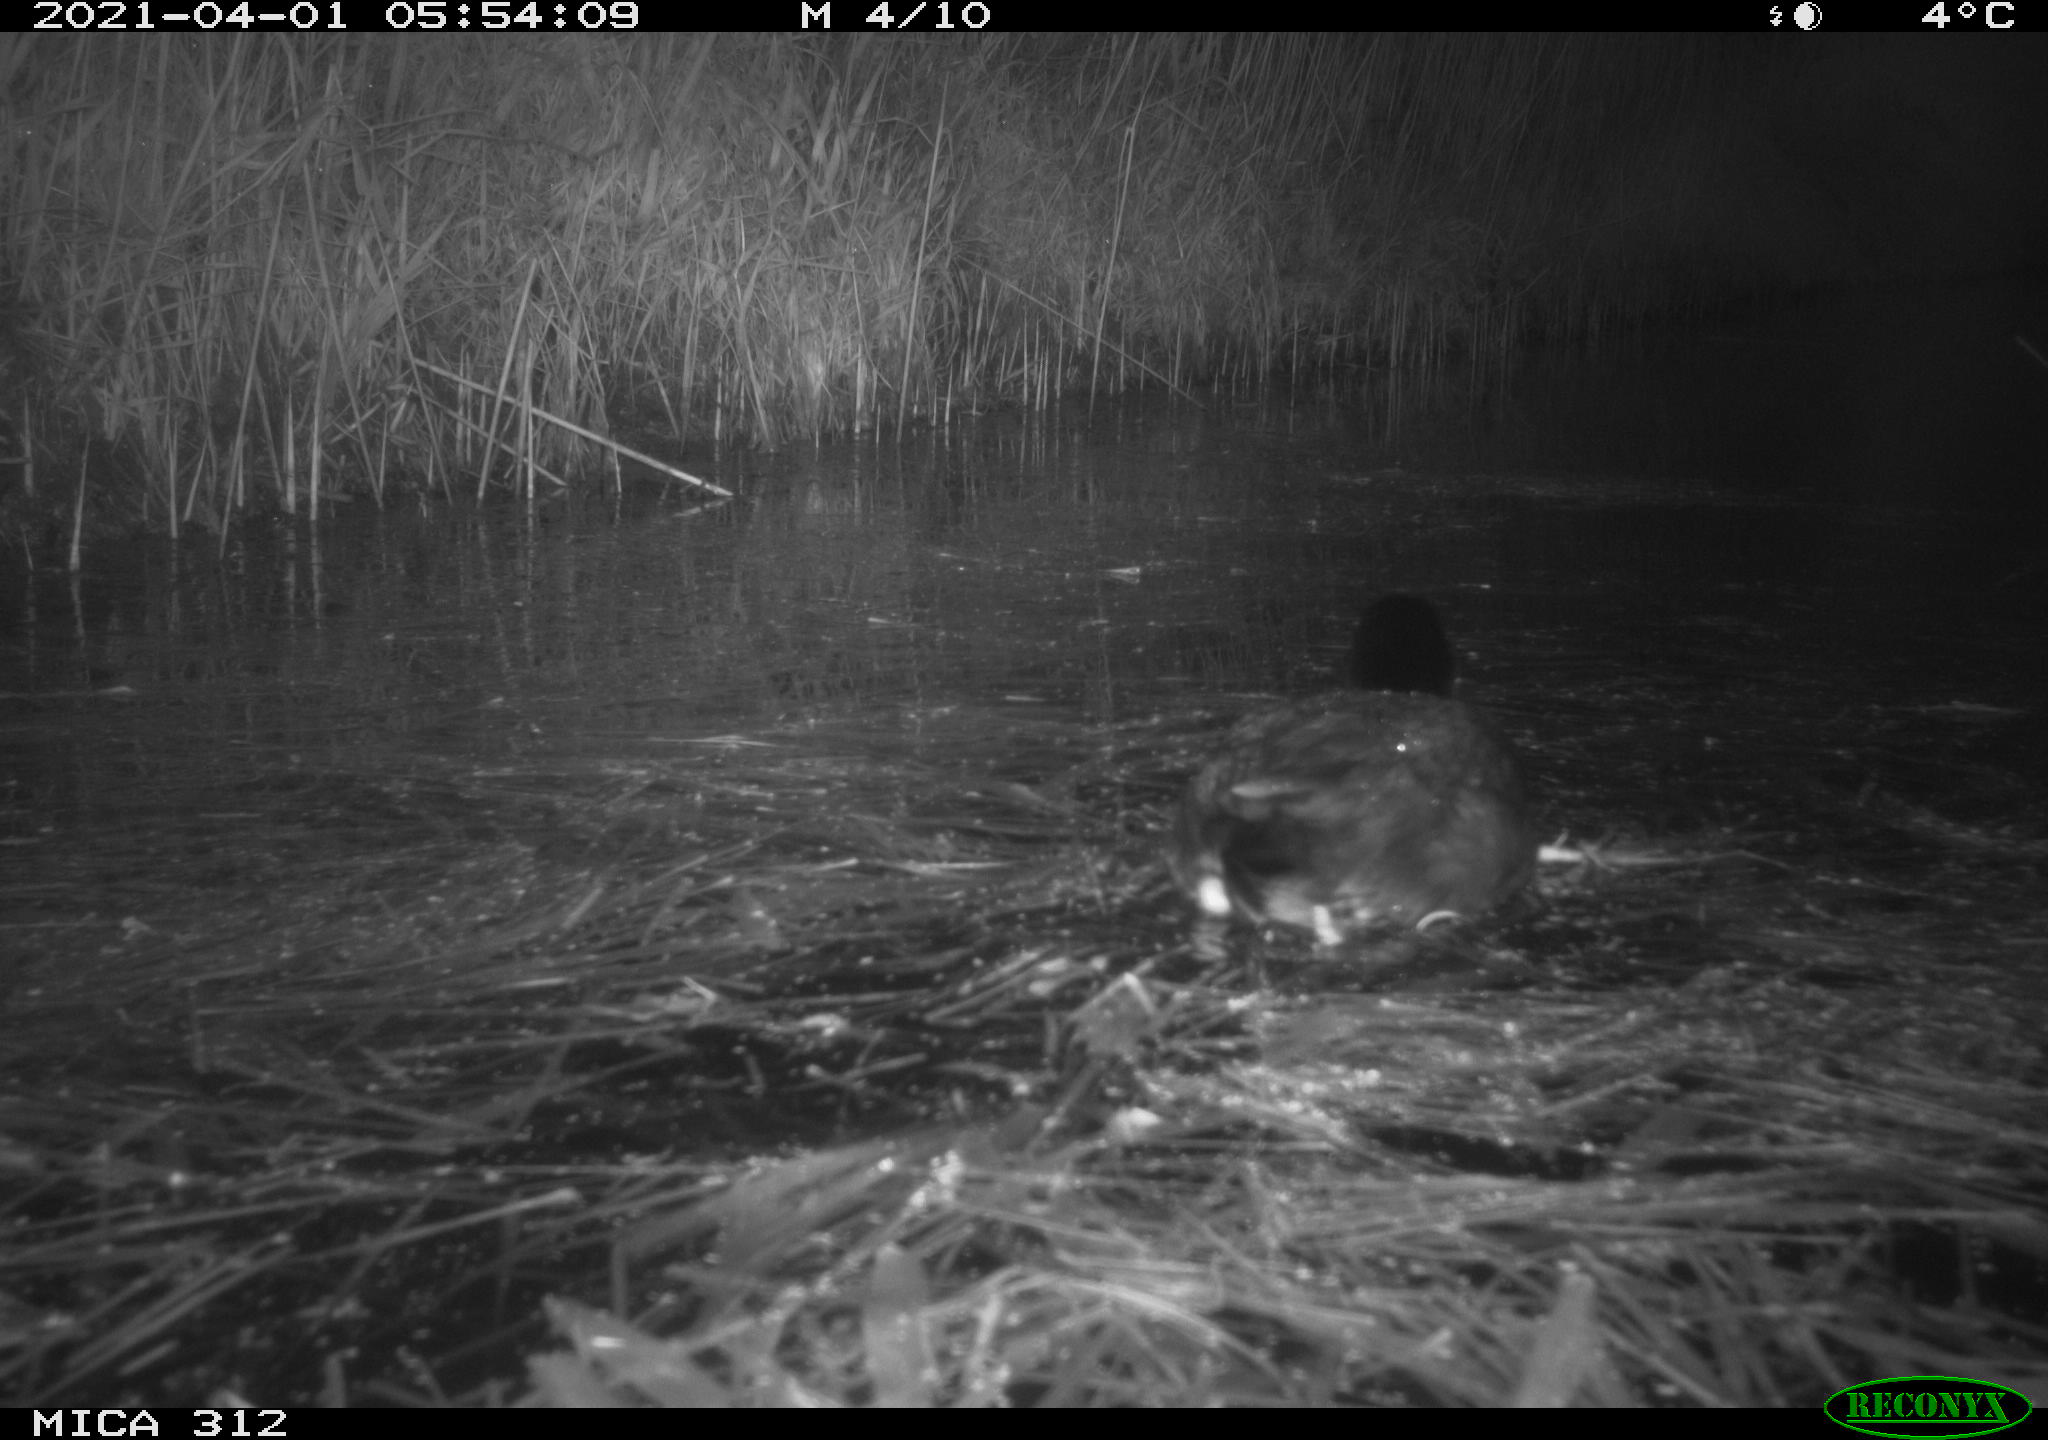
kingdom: Animalia
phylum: Chordata
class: Aves
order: Gruiformes
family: Rallidae
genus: Fulica
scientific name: Fulica atra
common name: Eurasian coot
